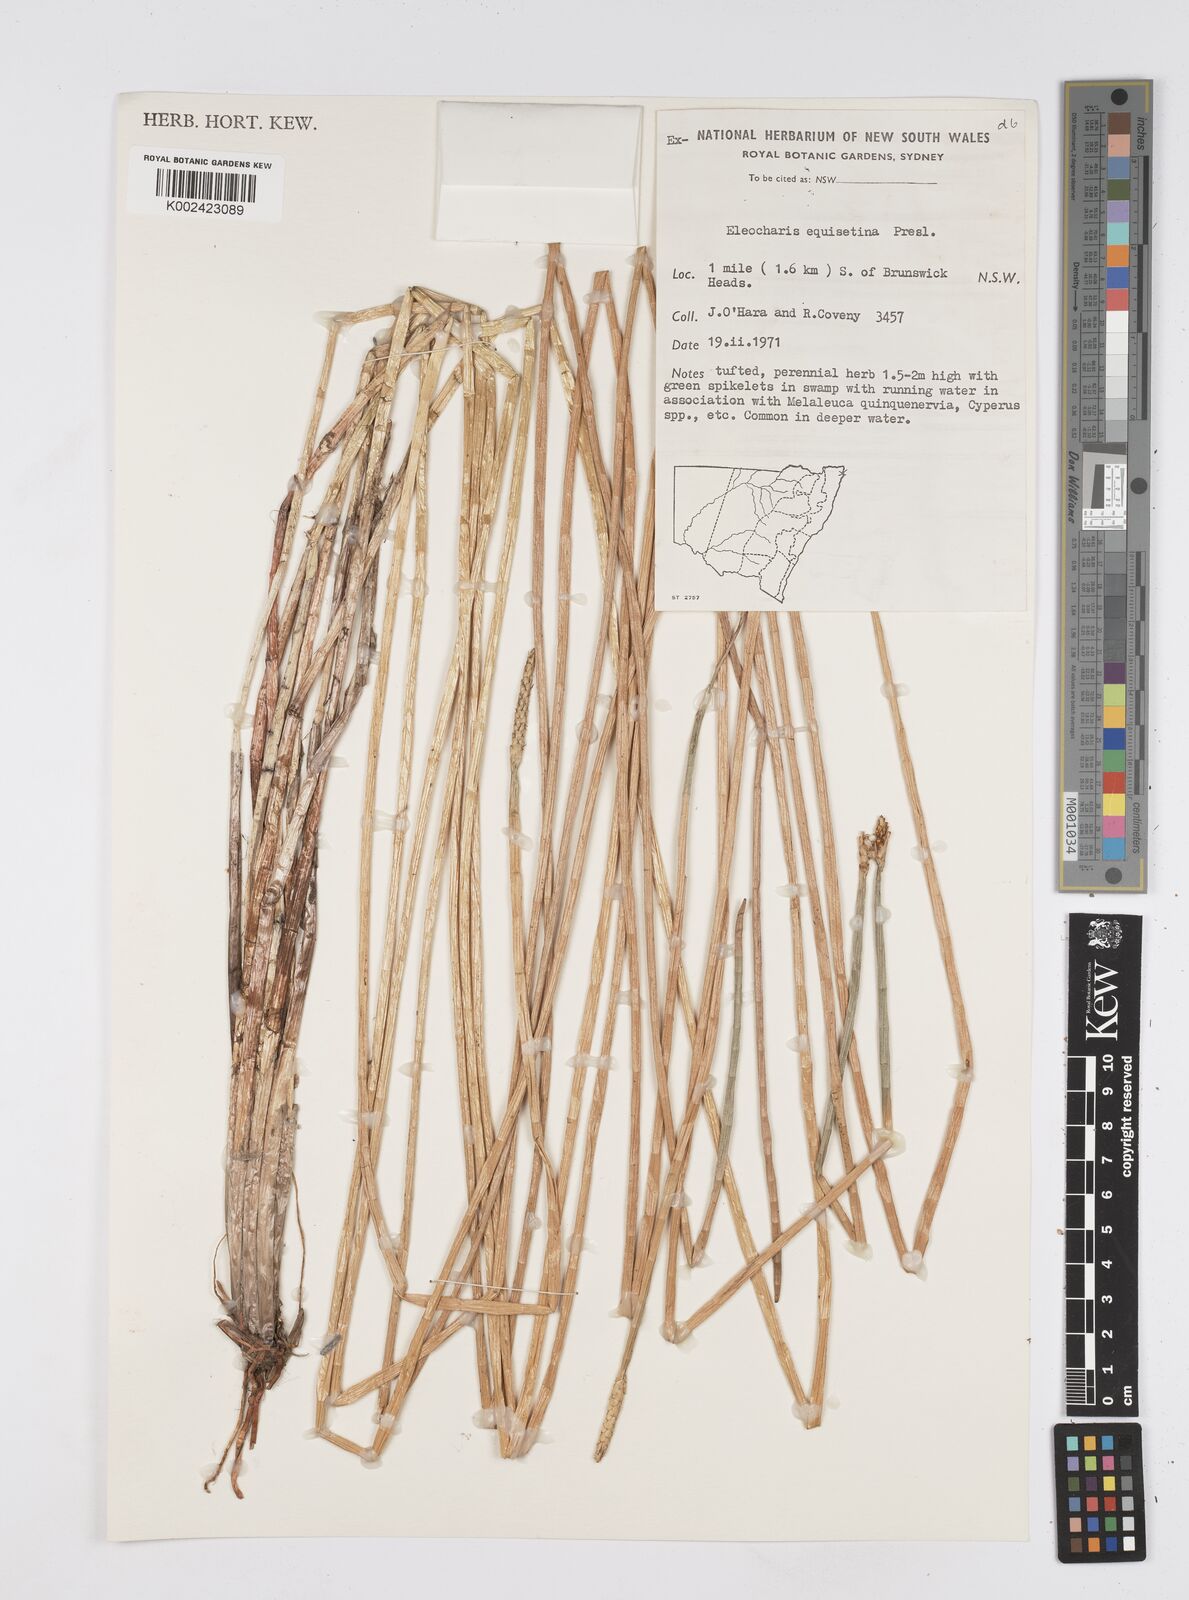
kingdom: Plantae
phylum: Tracheophyta
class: Liliopsida
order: Poales
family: Cyperaceae
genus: Eleocharis
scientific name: Eleocharis dulcis
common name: Chinese water chestnut
